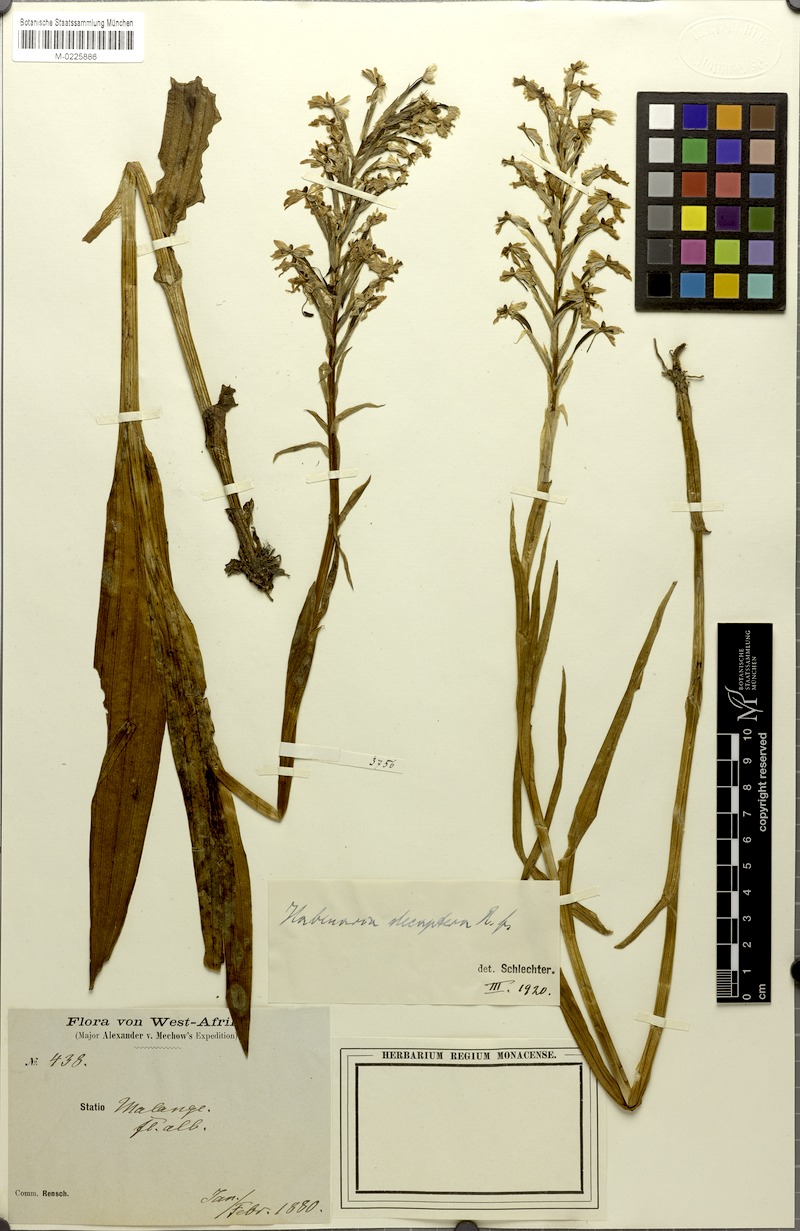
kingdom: Plantae
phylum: Tracheophyta
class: Liliopsida
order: Asparagales
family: Orchidaceae
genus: Habenaria
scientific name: Habenaria decaptera
